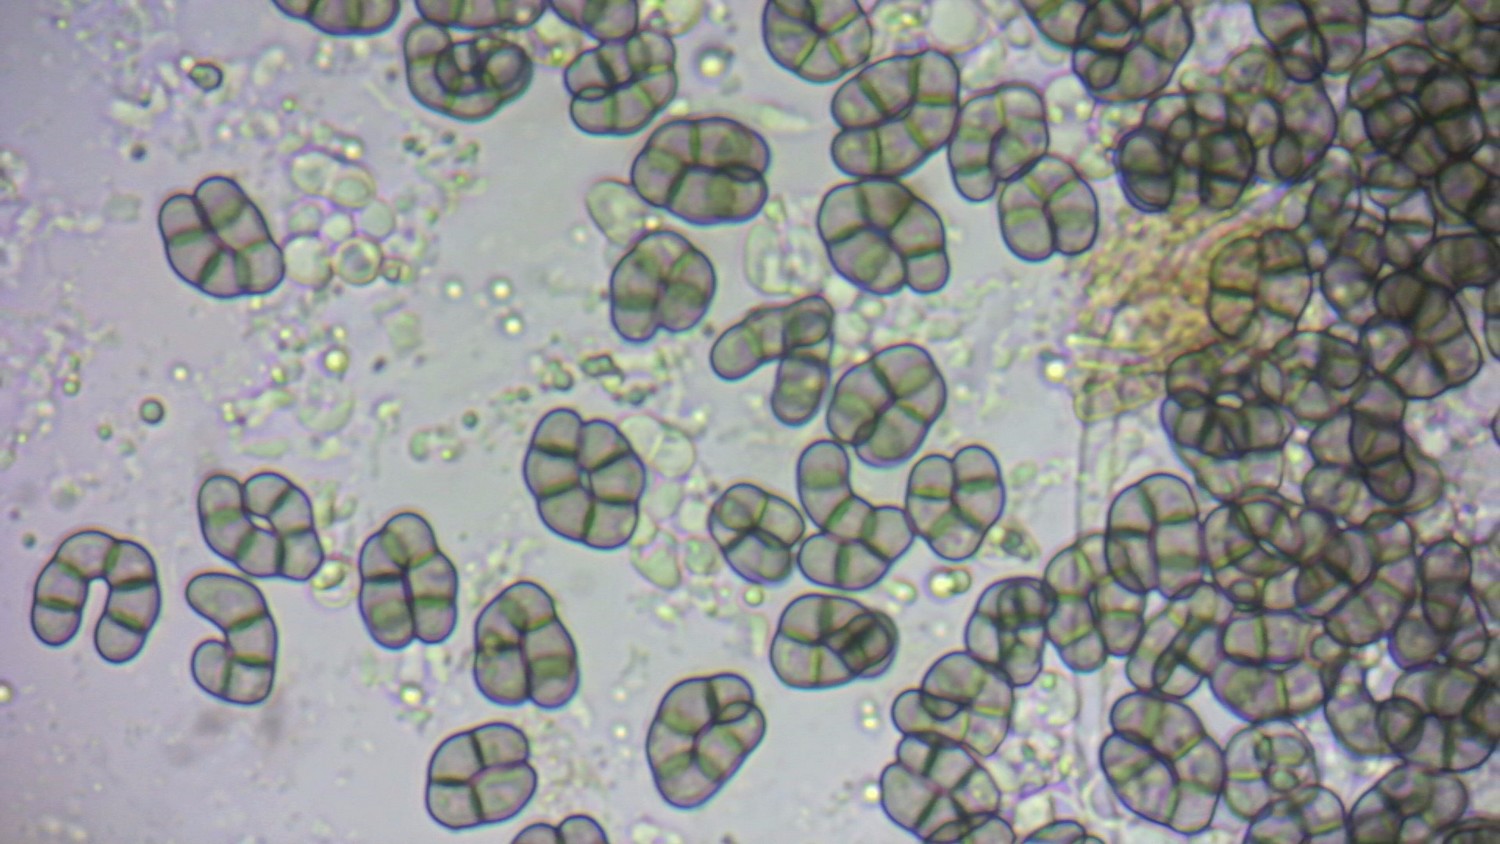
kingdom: Fungi
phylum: Ascomycota
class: Leotiomycetes
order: Helotiales
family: Hyaloscyphaceae
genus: Eupezizella
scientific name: Eupezizella aureliella
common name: almindelig klarskive
